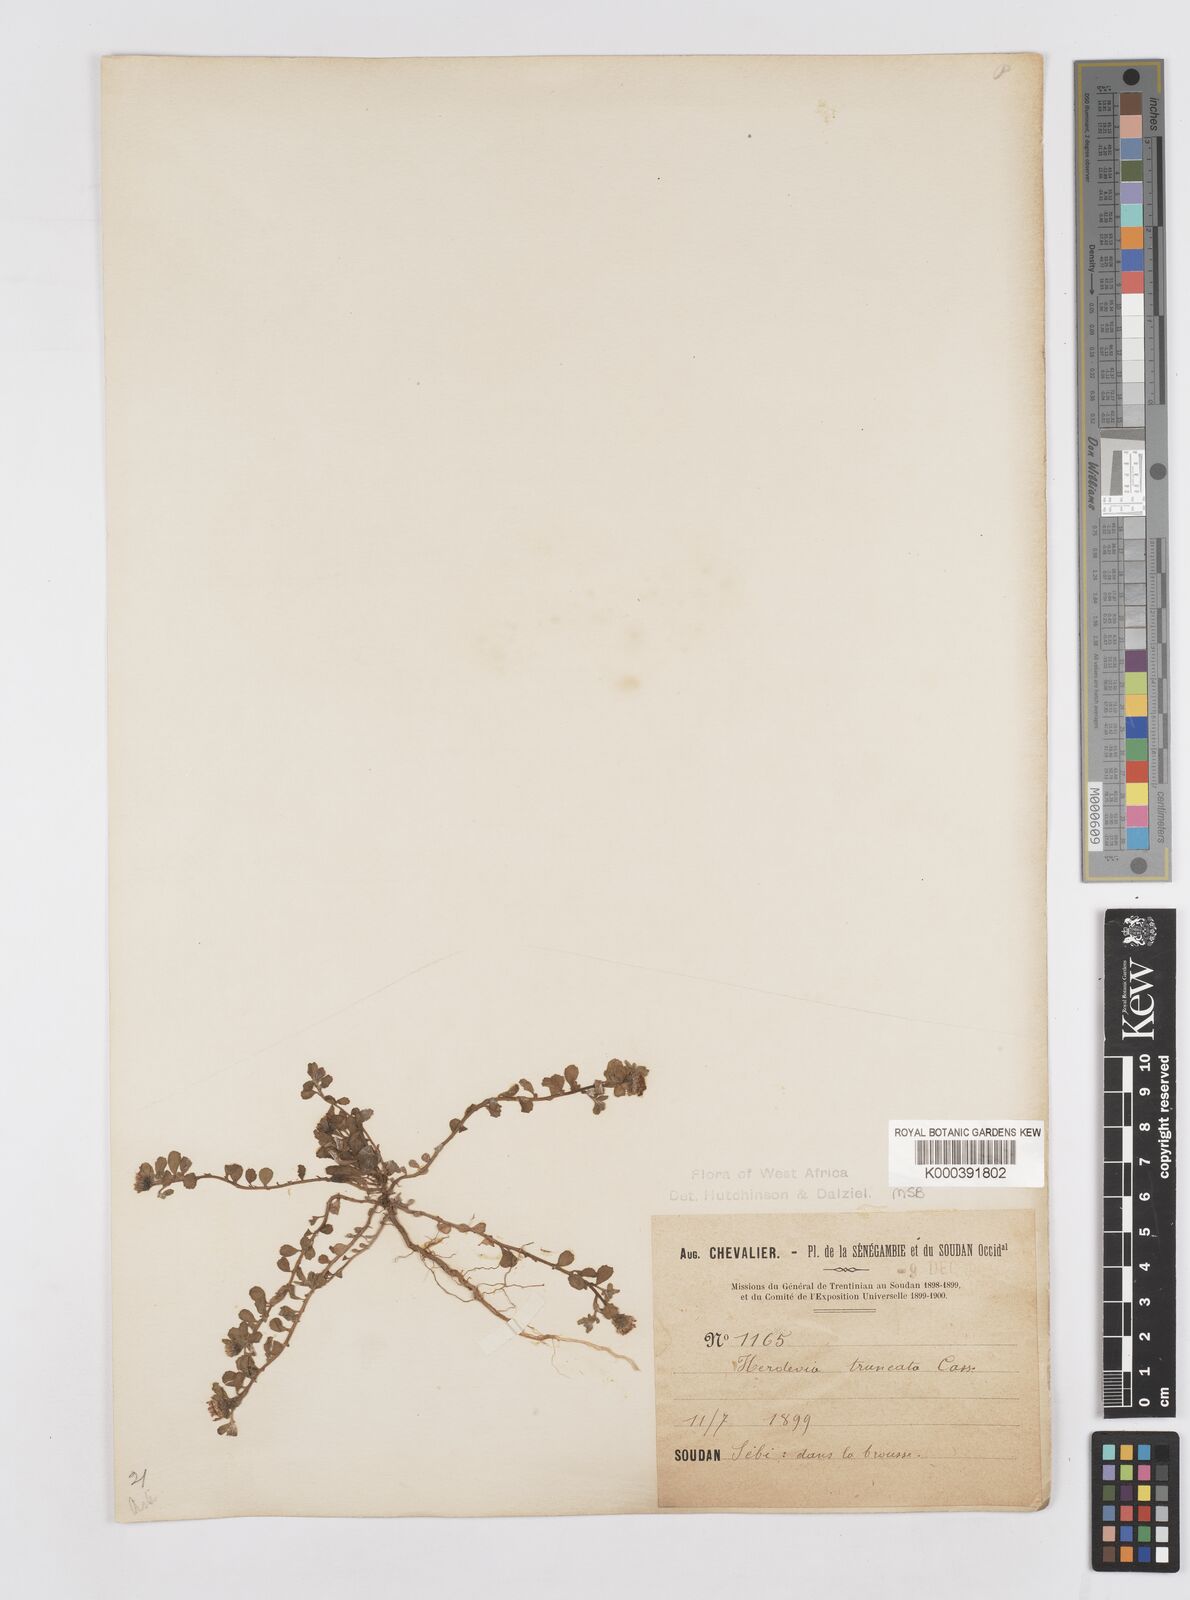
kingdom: Plantae
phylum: Tracheophyta
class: Magnoliopsida
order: Asterales
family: Asteraceae
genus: Herderia
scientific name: Herderia truncata
